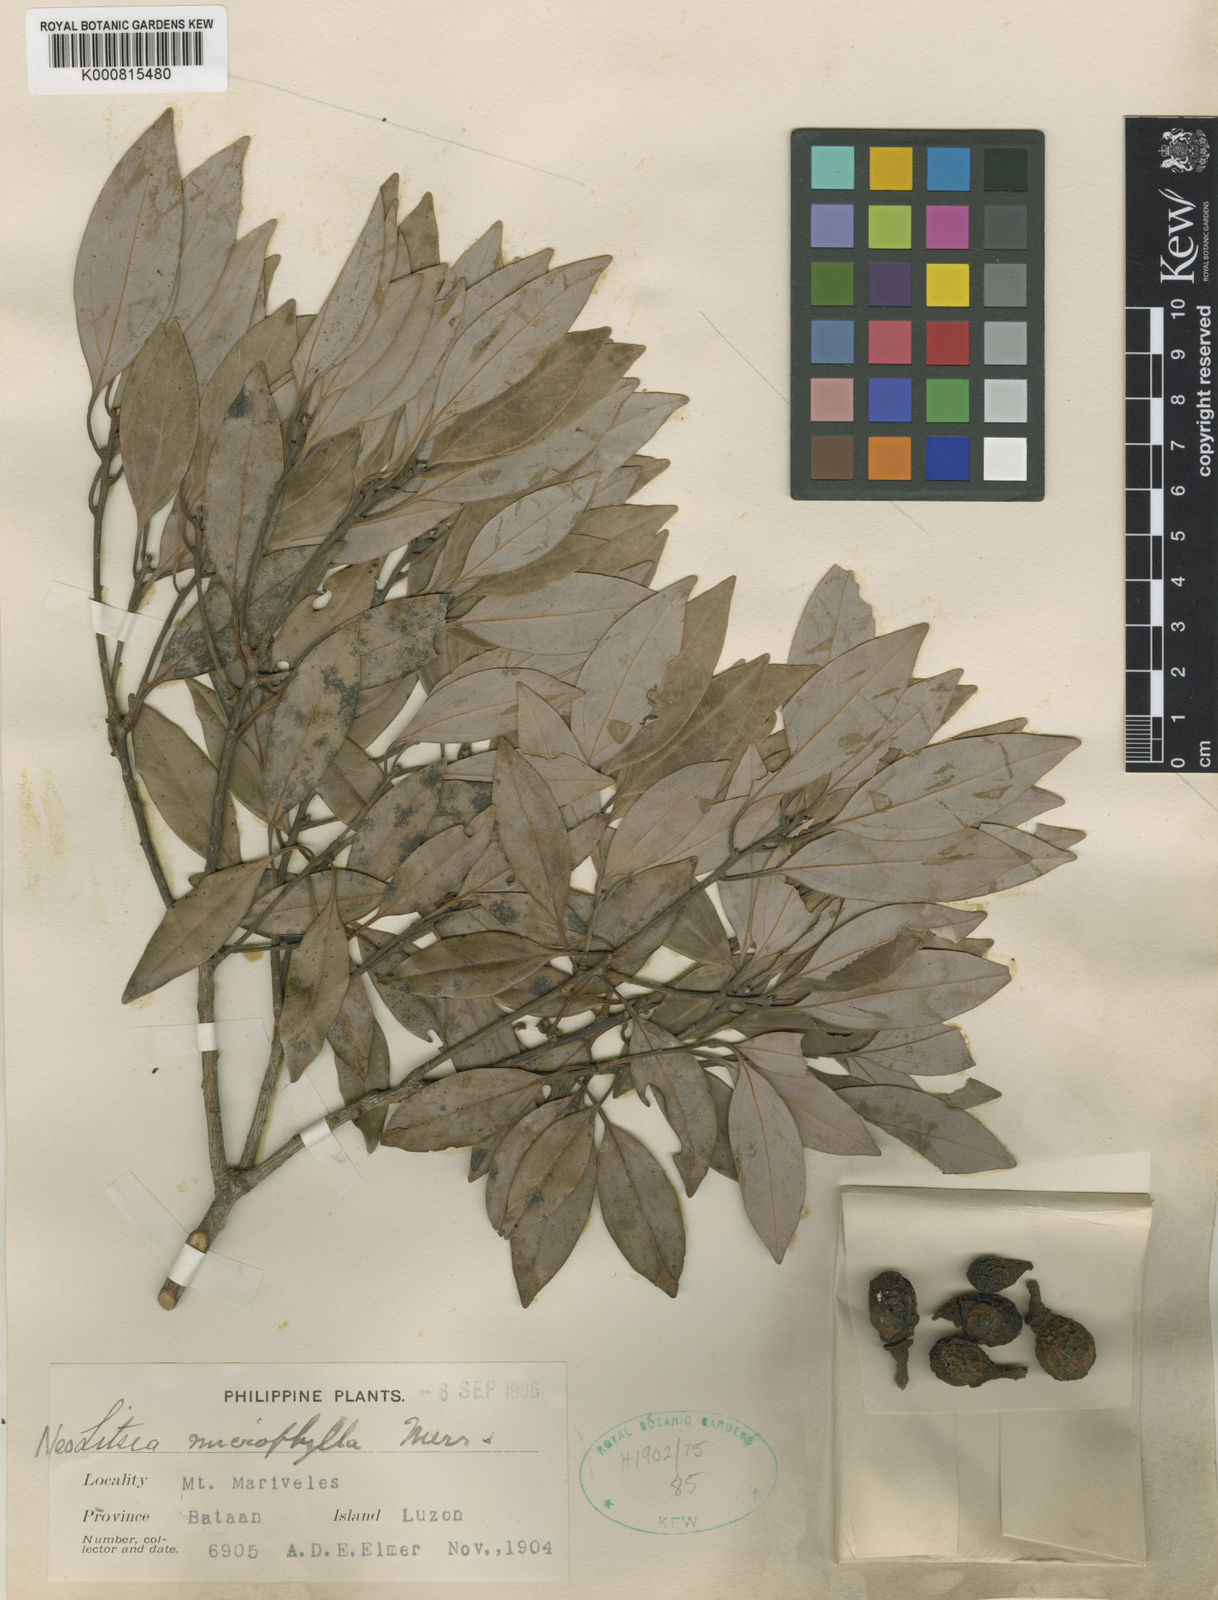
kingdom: Plantae
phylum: Tracheophyta
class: Magnoliopsida
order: Laurales
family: Lauraceae
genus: Neolitsea
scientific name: Neolitsea microphylla
